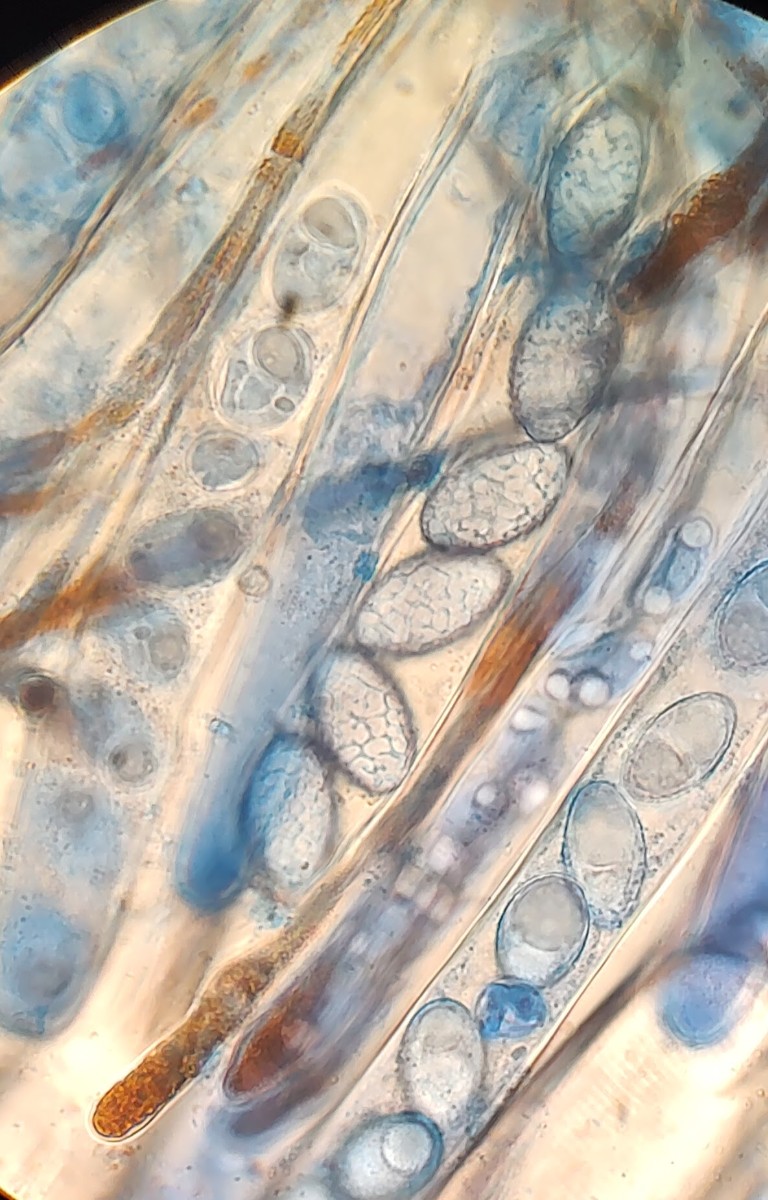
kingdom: Fungi
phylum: Ascomycota
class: Pezizomycetes
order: Pezizales
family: Pyronemataceae
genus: Neottiella
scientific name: Neottiella rutilans
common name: jomfruhår-mosbæger
